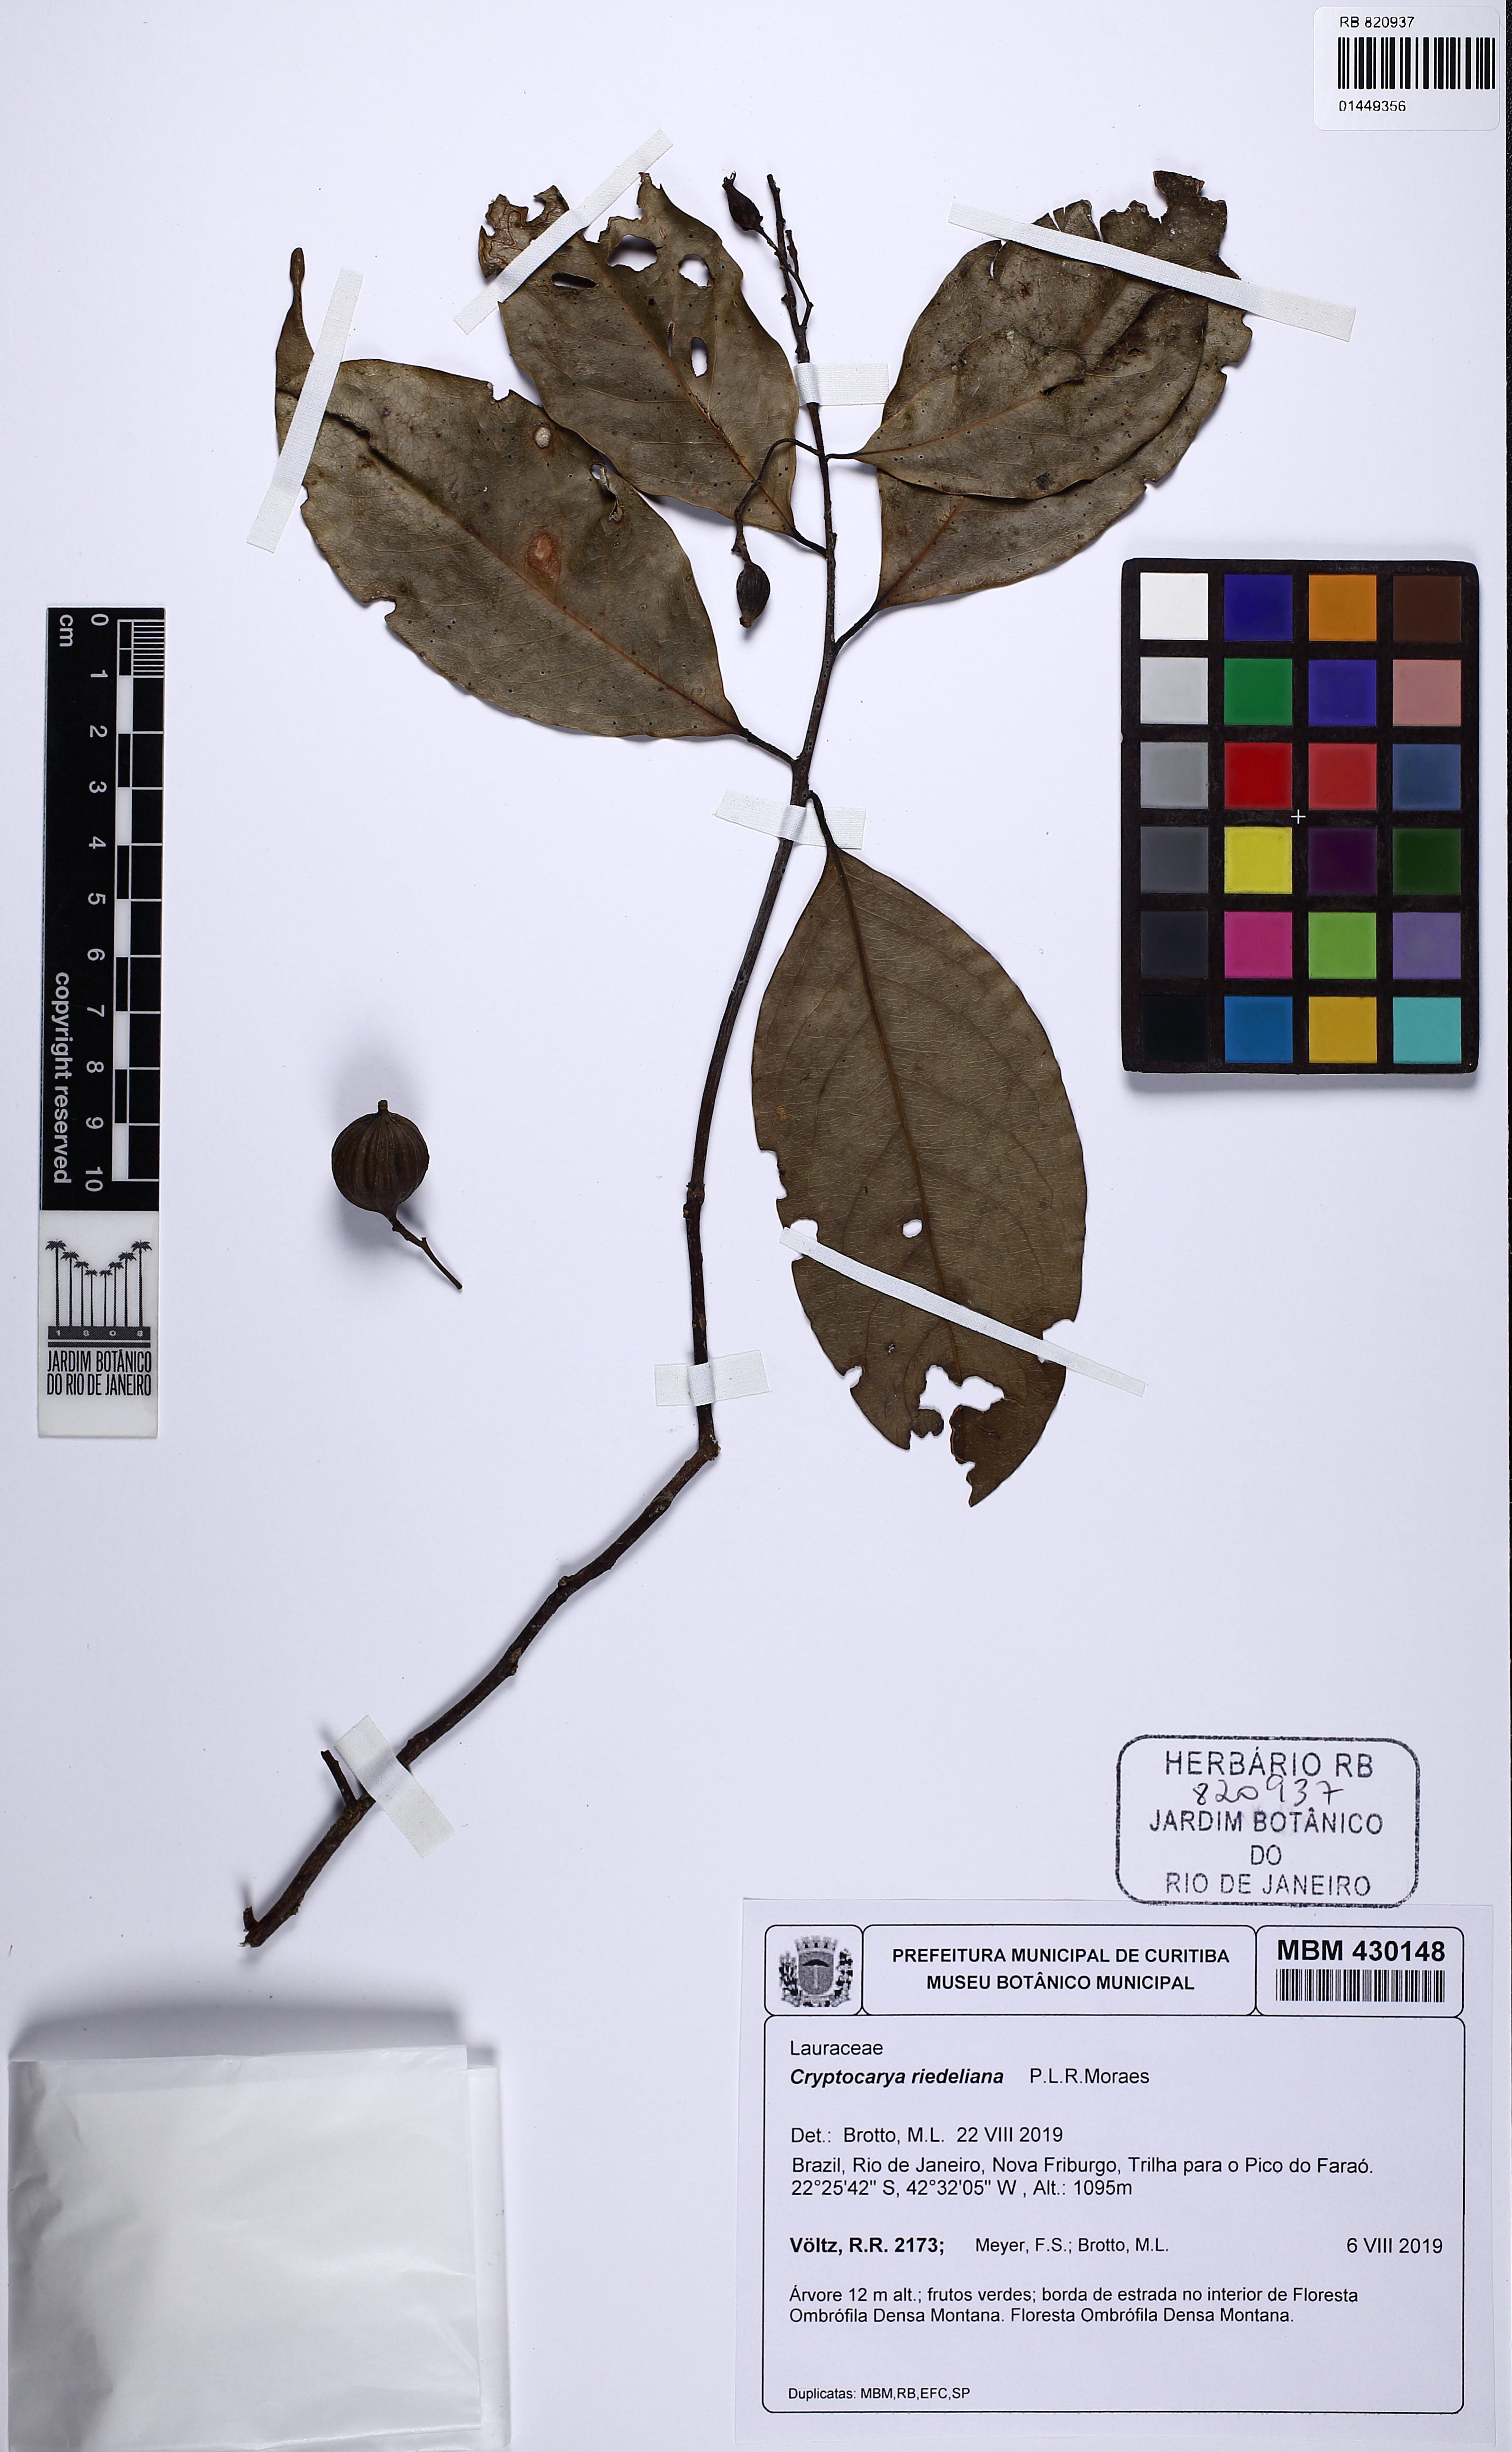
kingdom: Plantae
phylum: Tracheophyta
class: Magnoliopsida
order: Laurales
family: Lauraceae
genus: Cryptocarya
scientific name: Cryptocarya riedeliana
